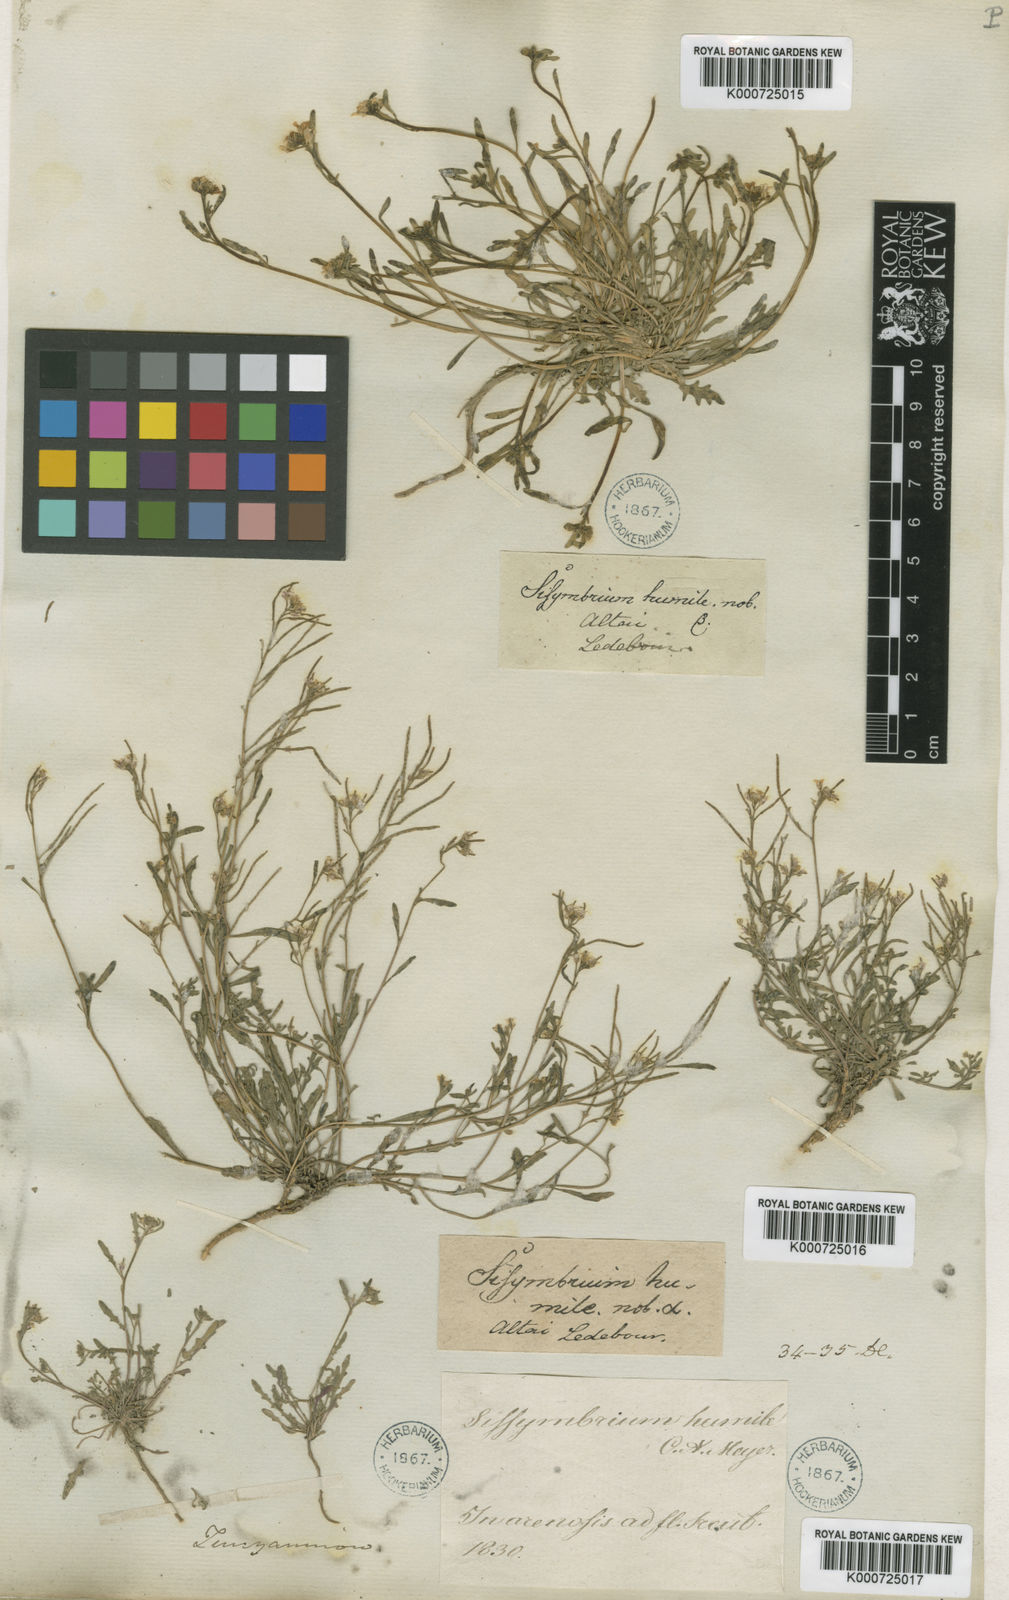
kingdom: Plantae
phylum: Tracheophyta
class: Magnoliopsida
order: Brassicales
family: Brassicaceae
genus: Neotorularia
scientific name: Neotorularia
